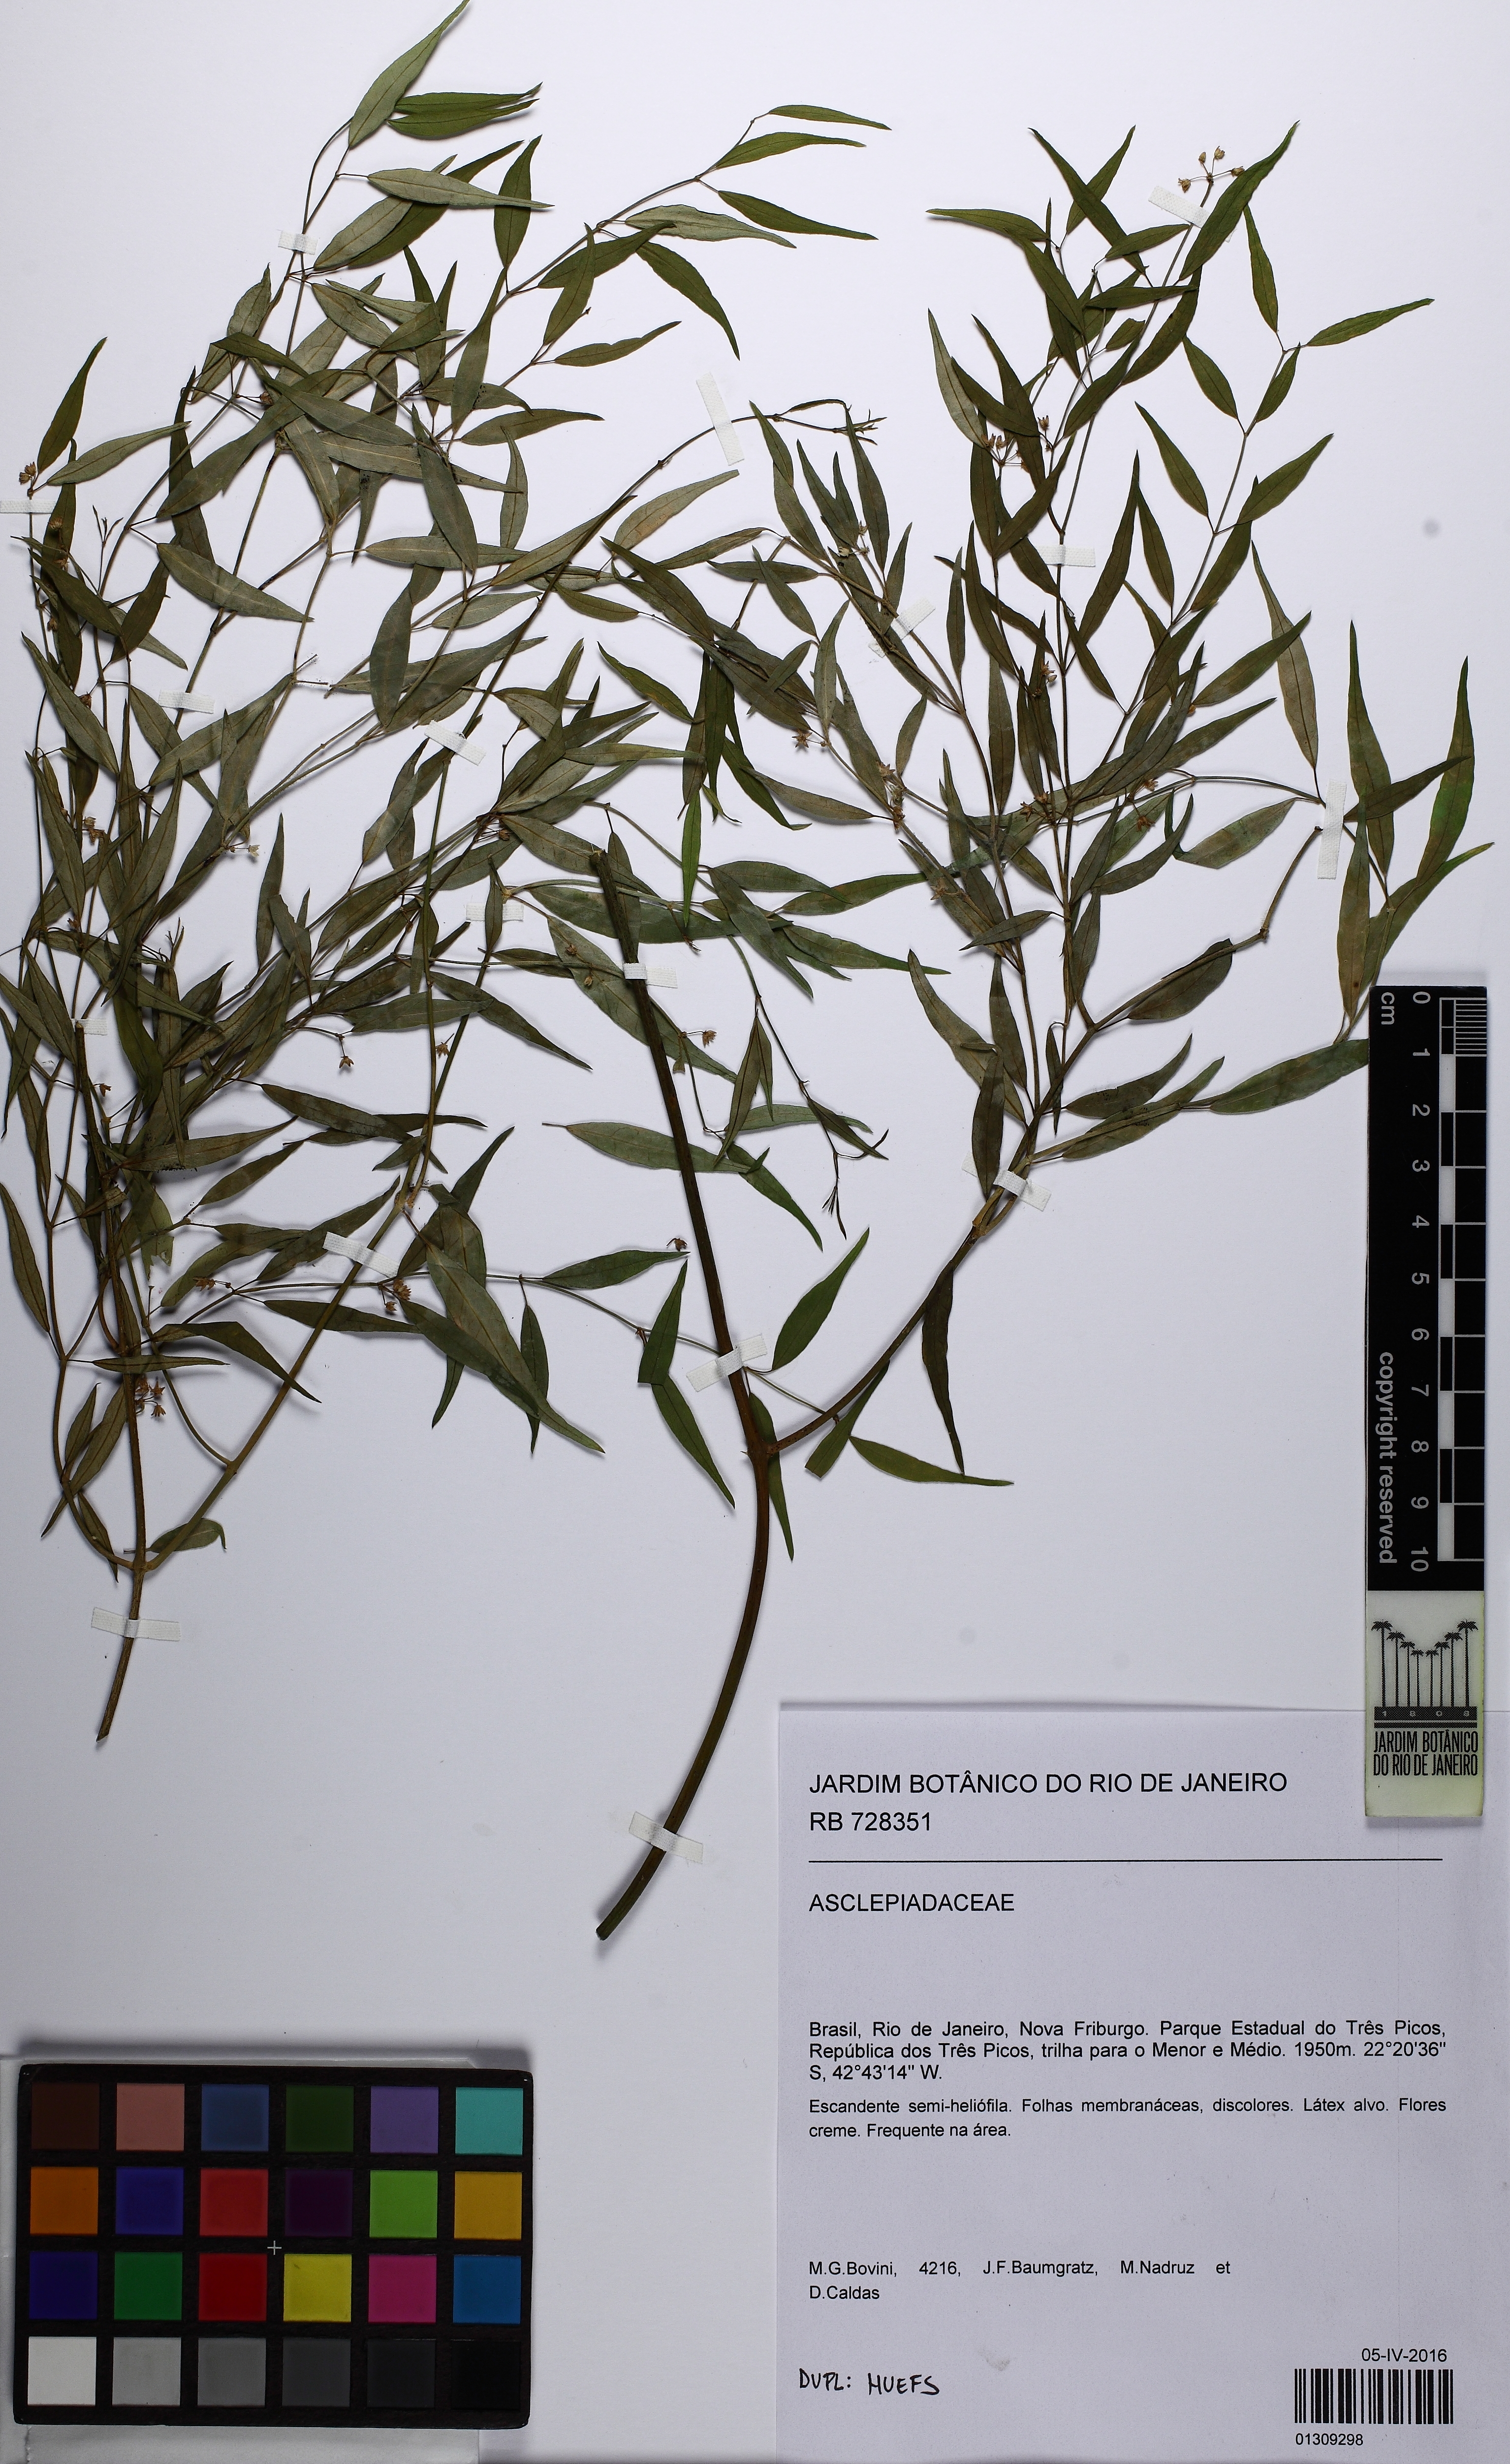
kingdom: Plantae
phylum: Tracheophyta
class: Magnoliopsida
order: Gentianales
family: Apocynaceae
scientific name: Apocynaceae
